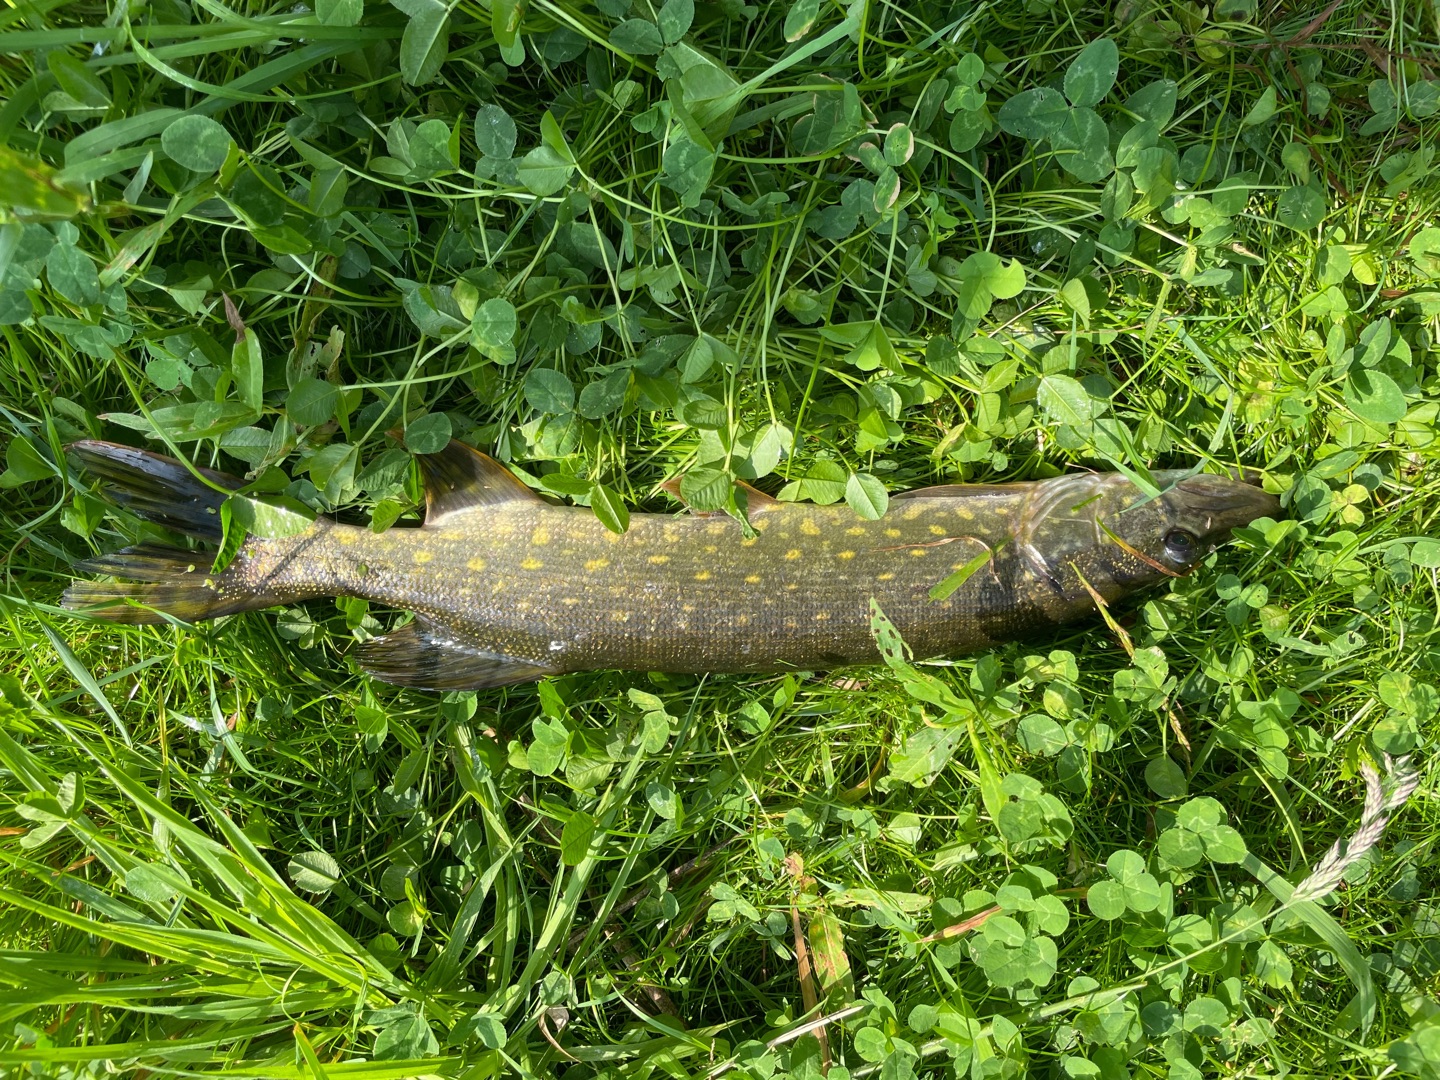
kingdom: Animalia
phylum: Chordata
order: Esociformes
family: Esocidae
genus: Esox
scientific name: Esox lucius
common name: Gedde
